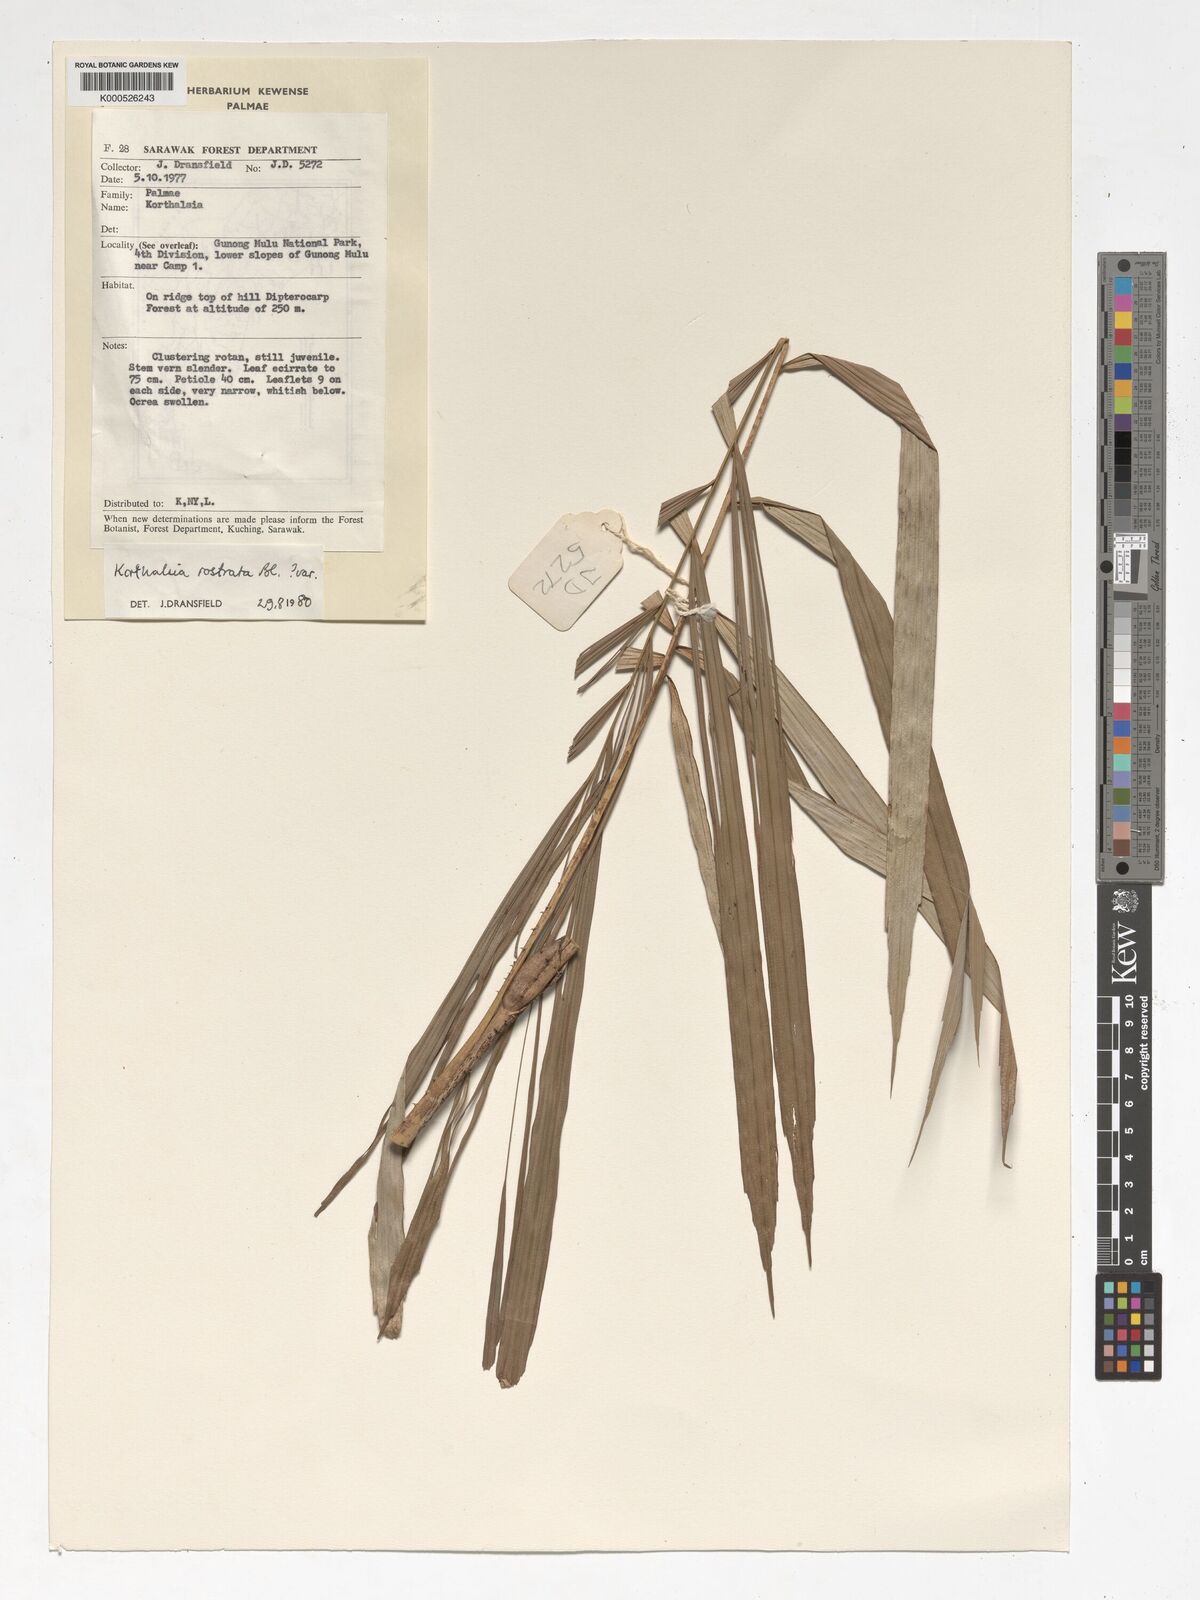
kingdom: Plantae
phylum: Tracheophyta
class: Liliopsida
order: Arecales
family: Arecaceae
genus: Korthalsia
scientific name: Korthalsia rostrata
